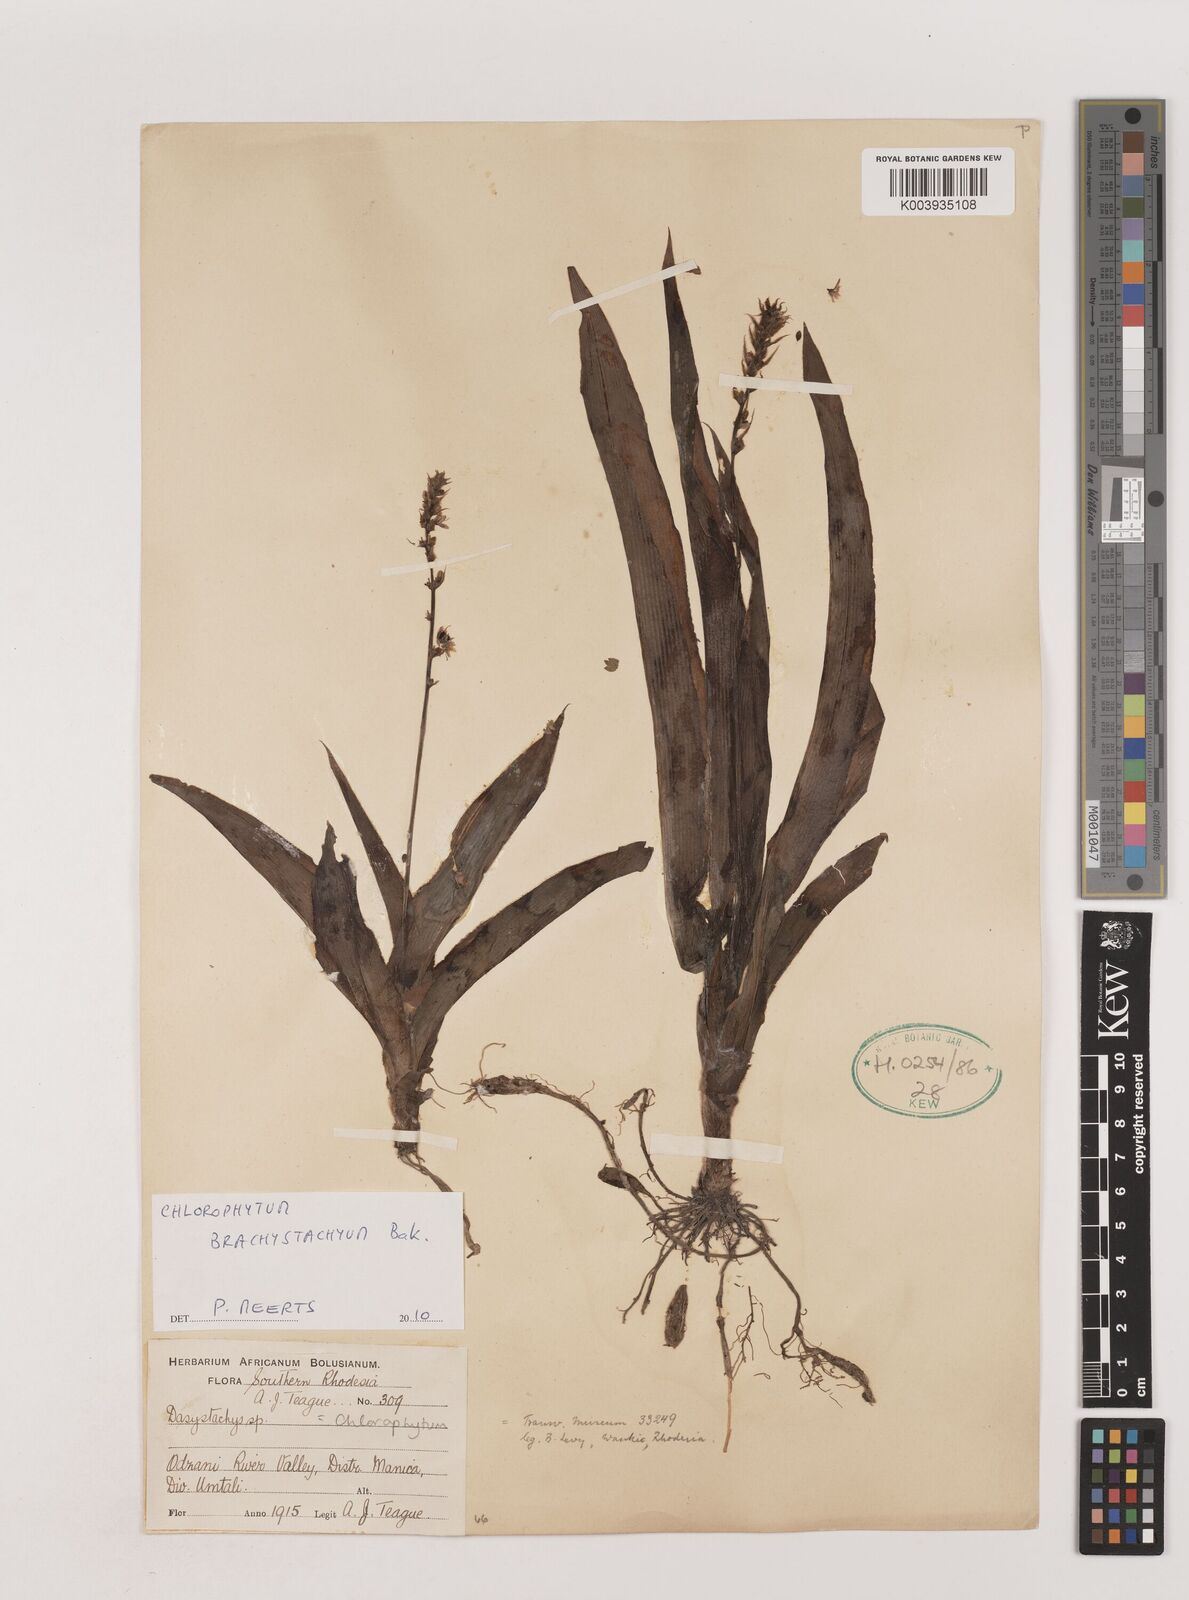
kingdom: Plantae
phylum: Tracheophyta
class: Liliopsida
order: Asparagales
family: Asparagaceae
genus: Chlorophytum
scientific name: Chlorophytum brachystachyum
